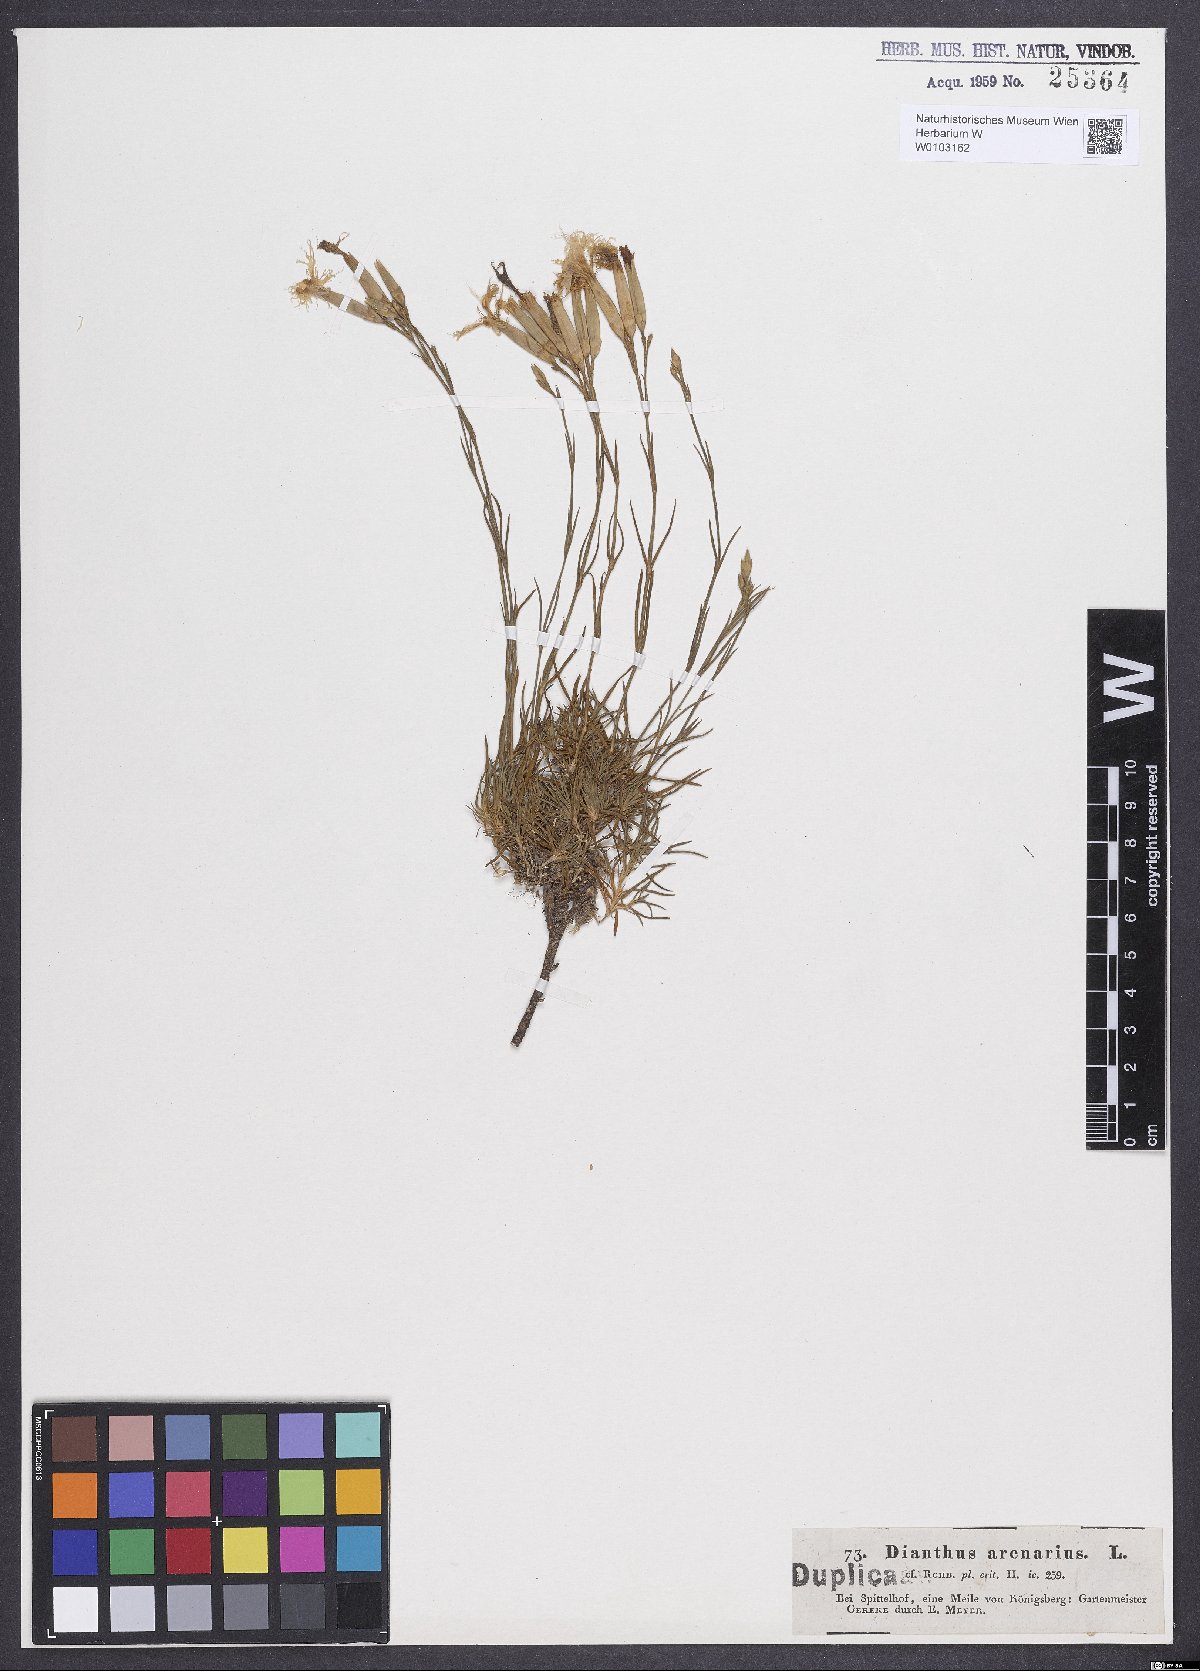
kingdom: Plantae
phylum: Tracheophyta
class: Magnoliopsida
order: Caryophyllales
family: Caryophyllaceae
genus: Dianthus
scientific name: Dianthus arenarius
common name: Stone pink
